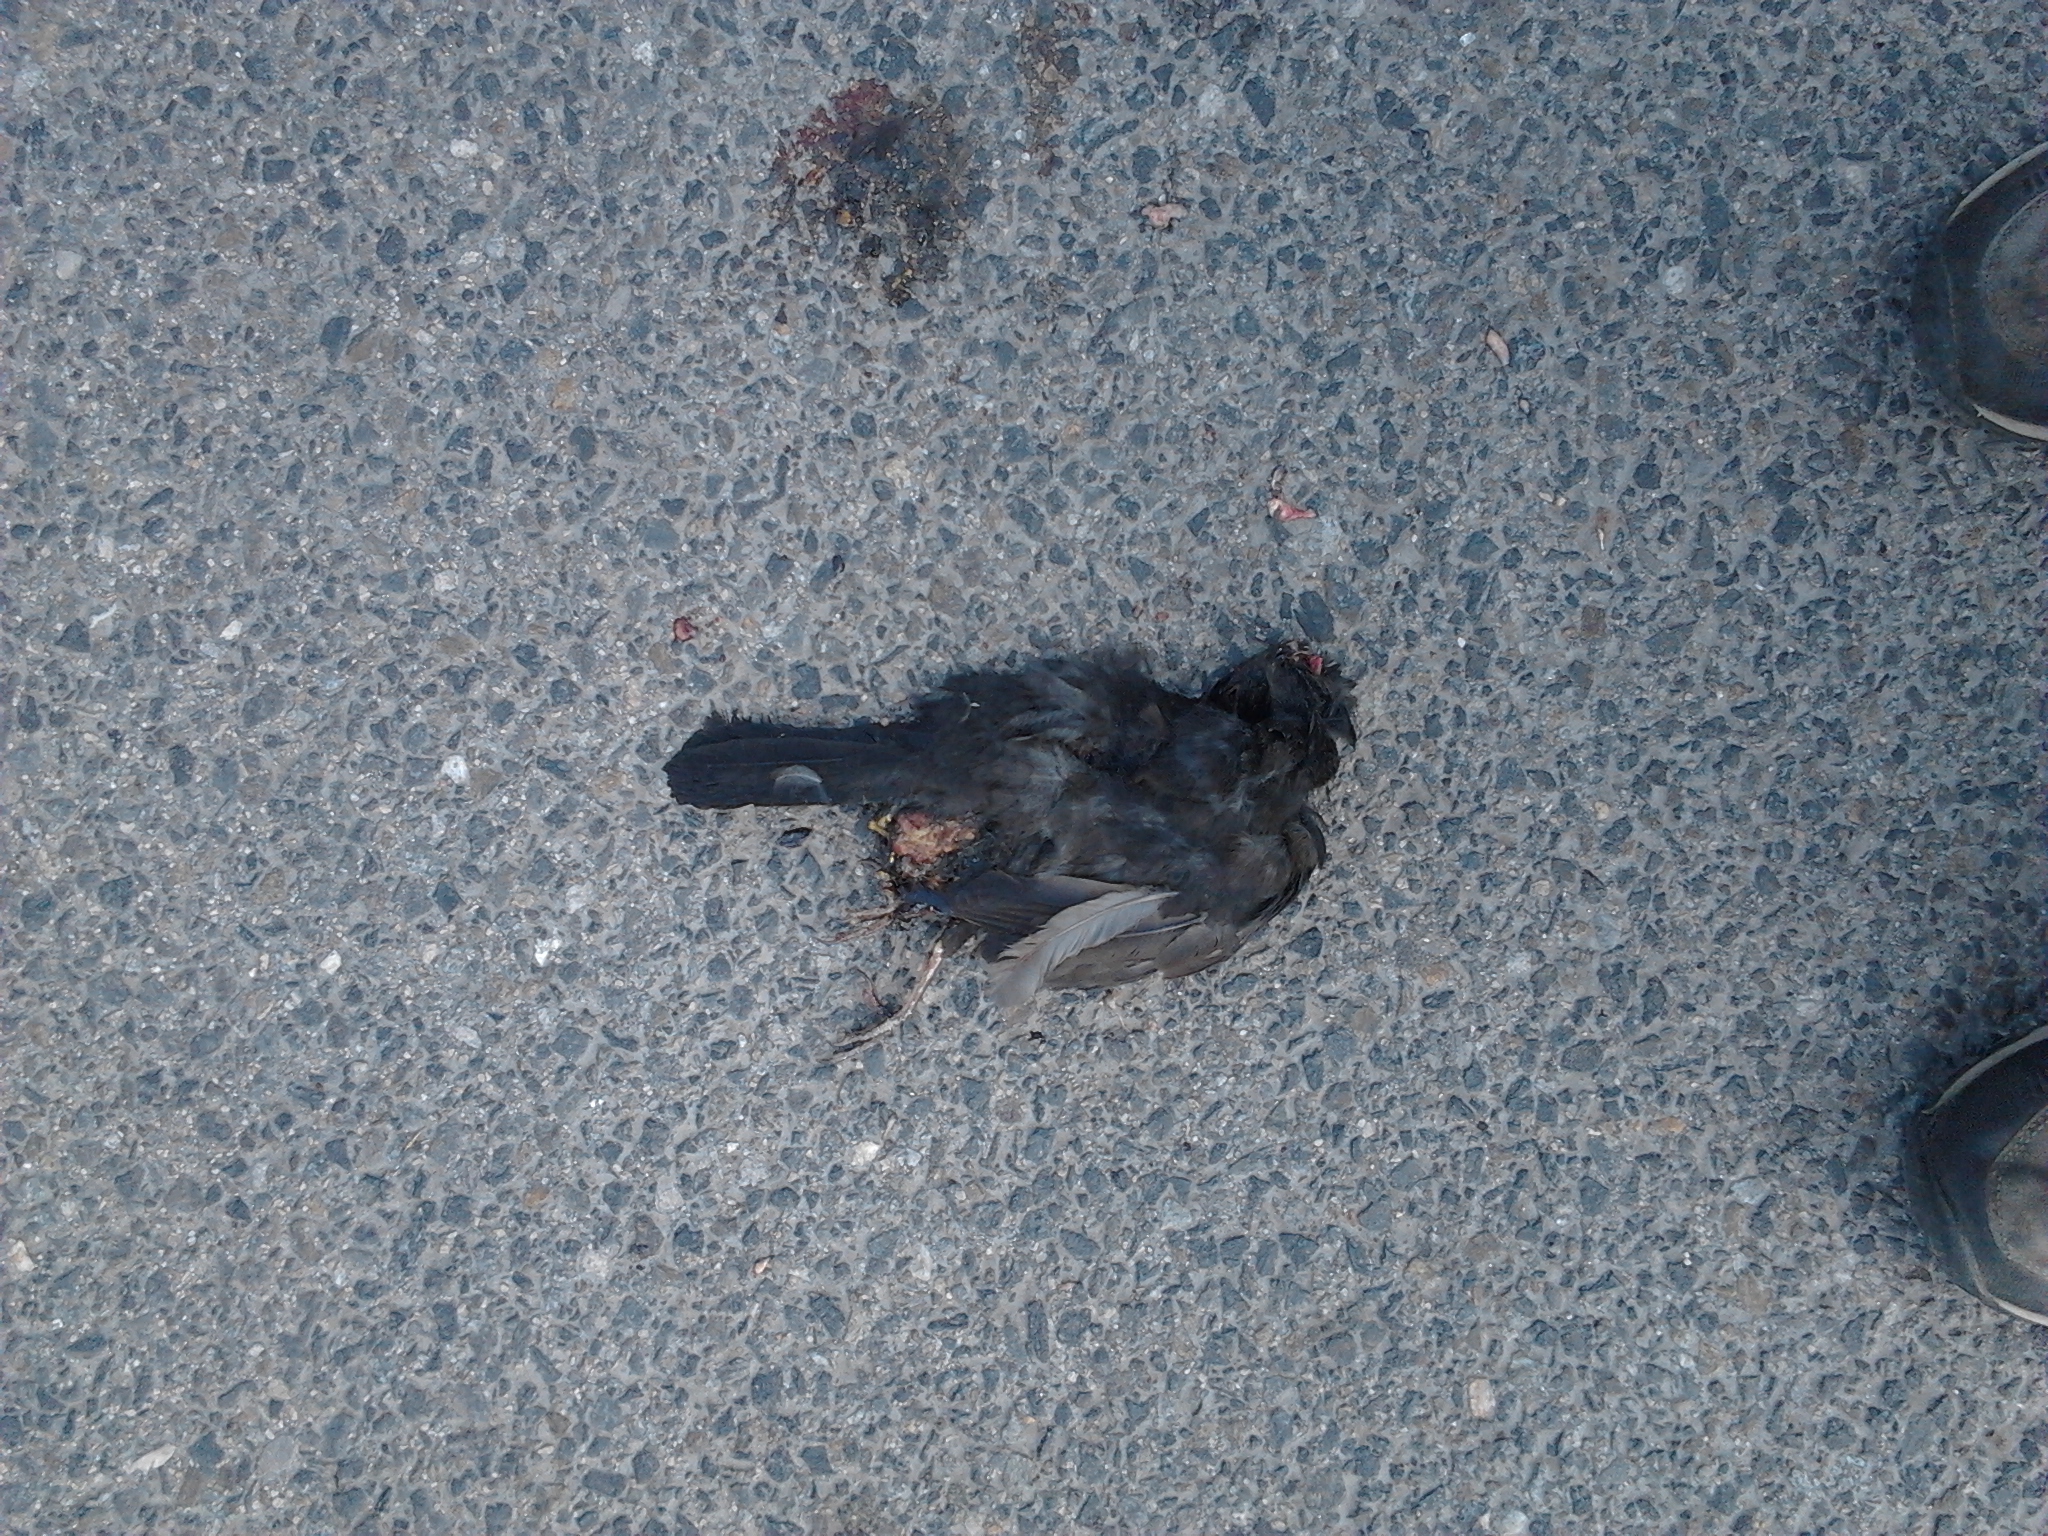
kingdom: Animalia
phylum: Chordata
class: Aves
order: Passeriformes
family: Turdidae
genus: Turdus
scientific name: Turdus merula
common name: Common blackbird
